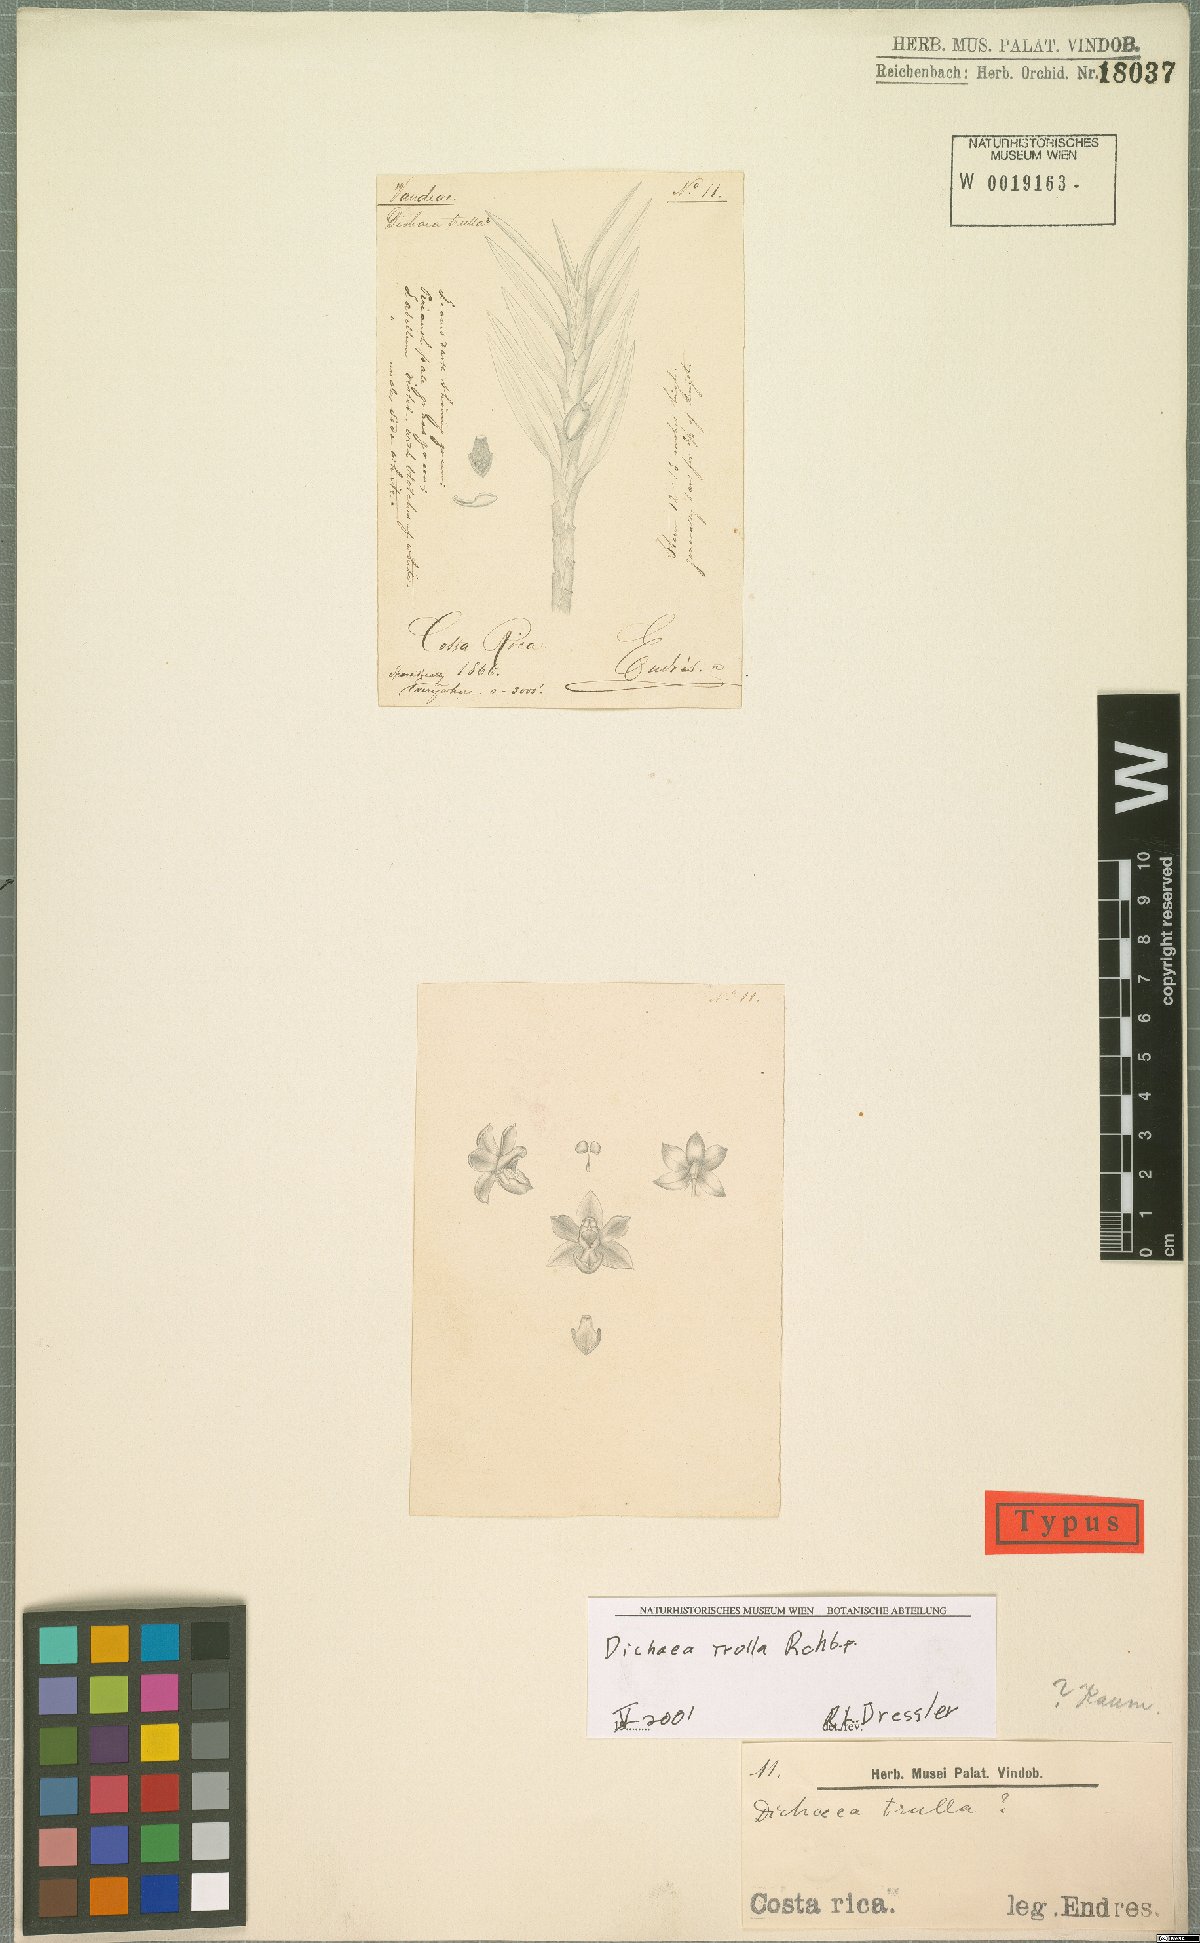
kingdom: Plantae
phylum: Tracheophyta
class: Liliopsida
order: Asparagales
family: Orchidaceae
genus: Dichaea
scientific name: Dichaea trulla
